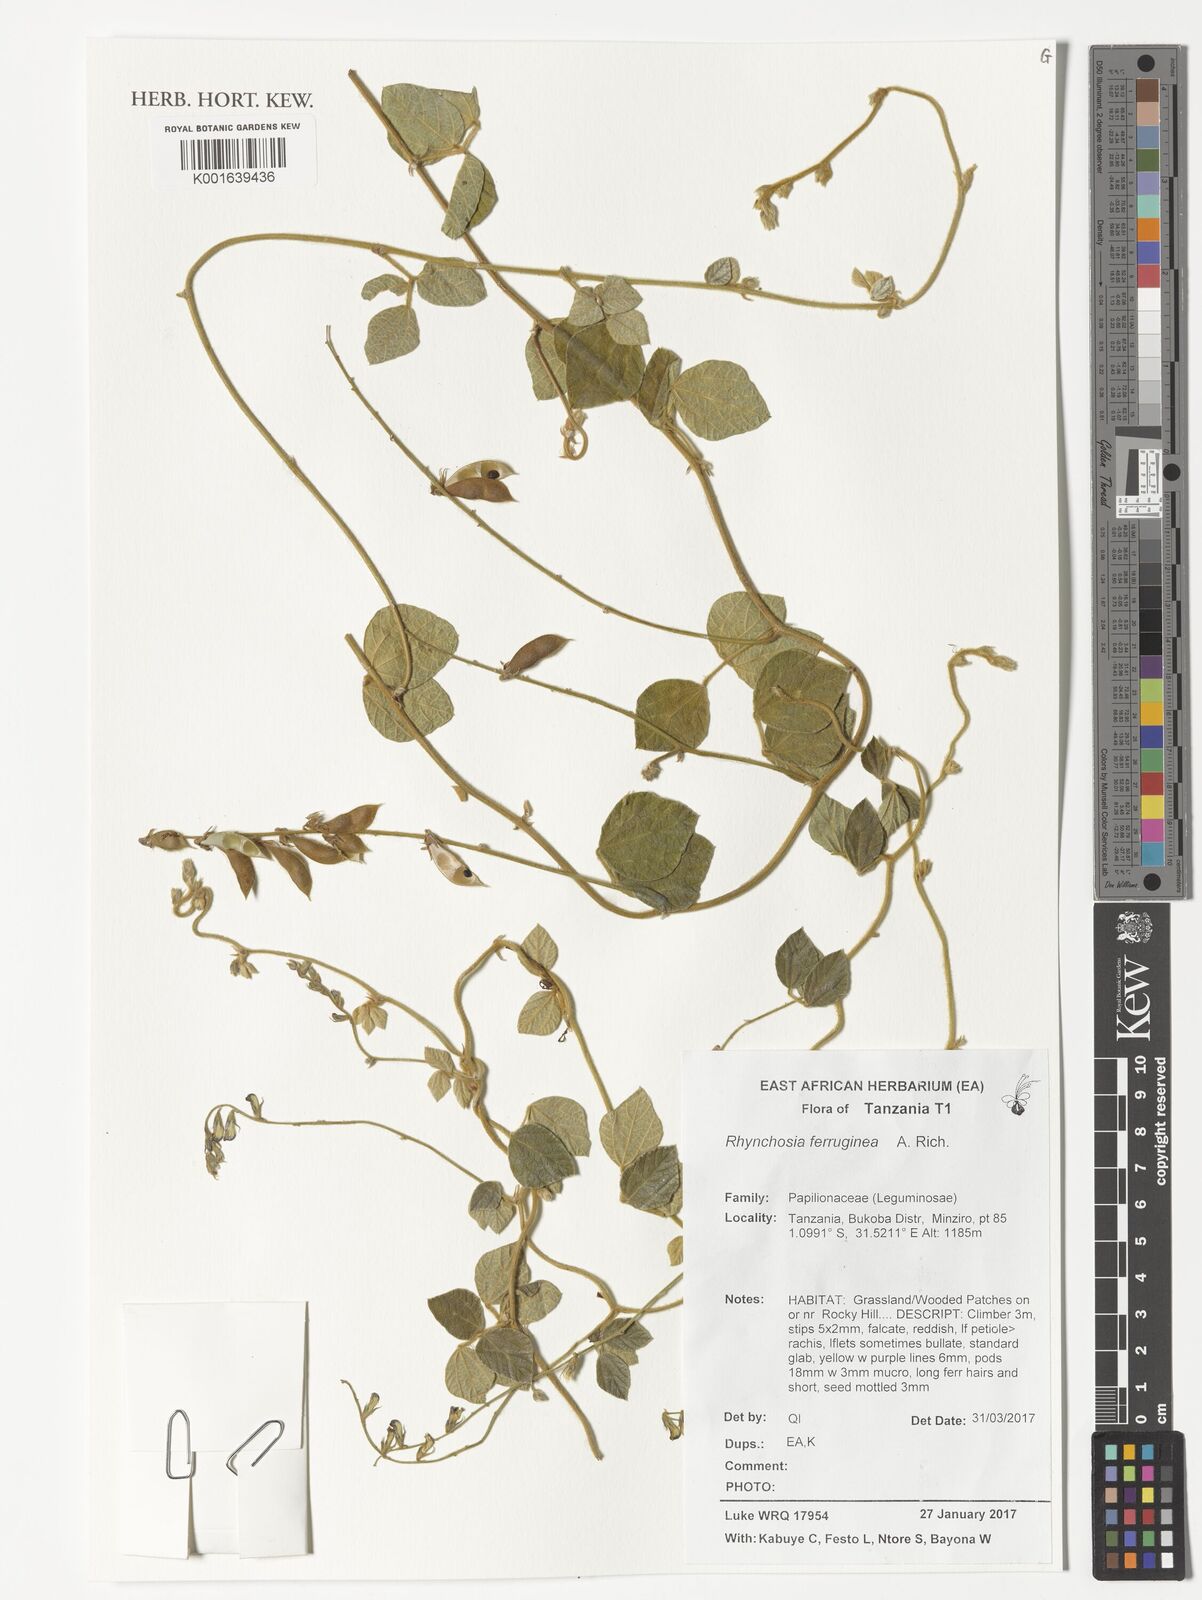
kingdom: Plantae
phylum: Tracheophyta
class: Magnoliopsida
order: Fabales
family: Fabaceae
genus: Rhynchosia
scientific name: Rhynchosia ferruginea
